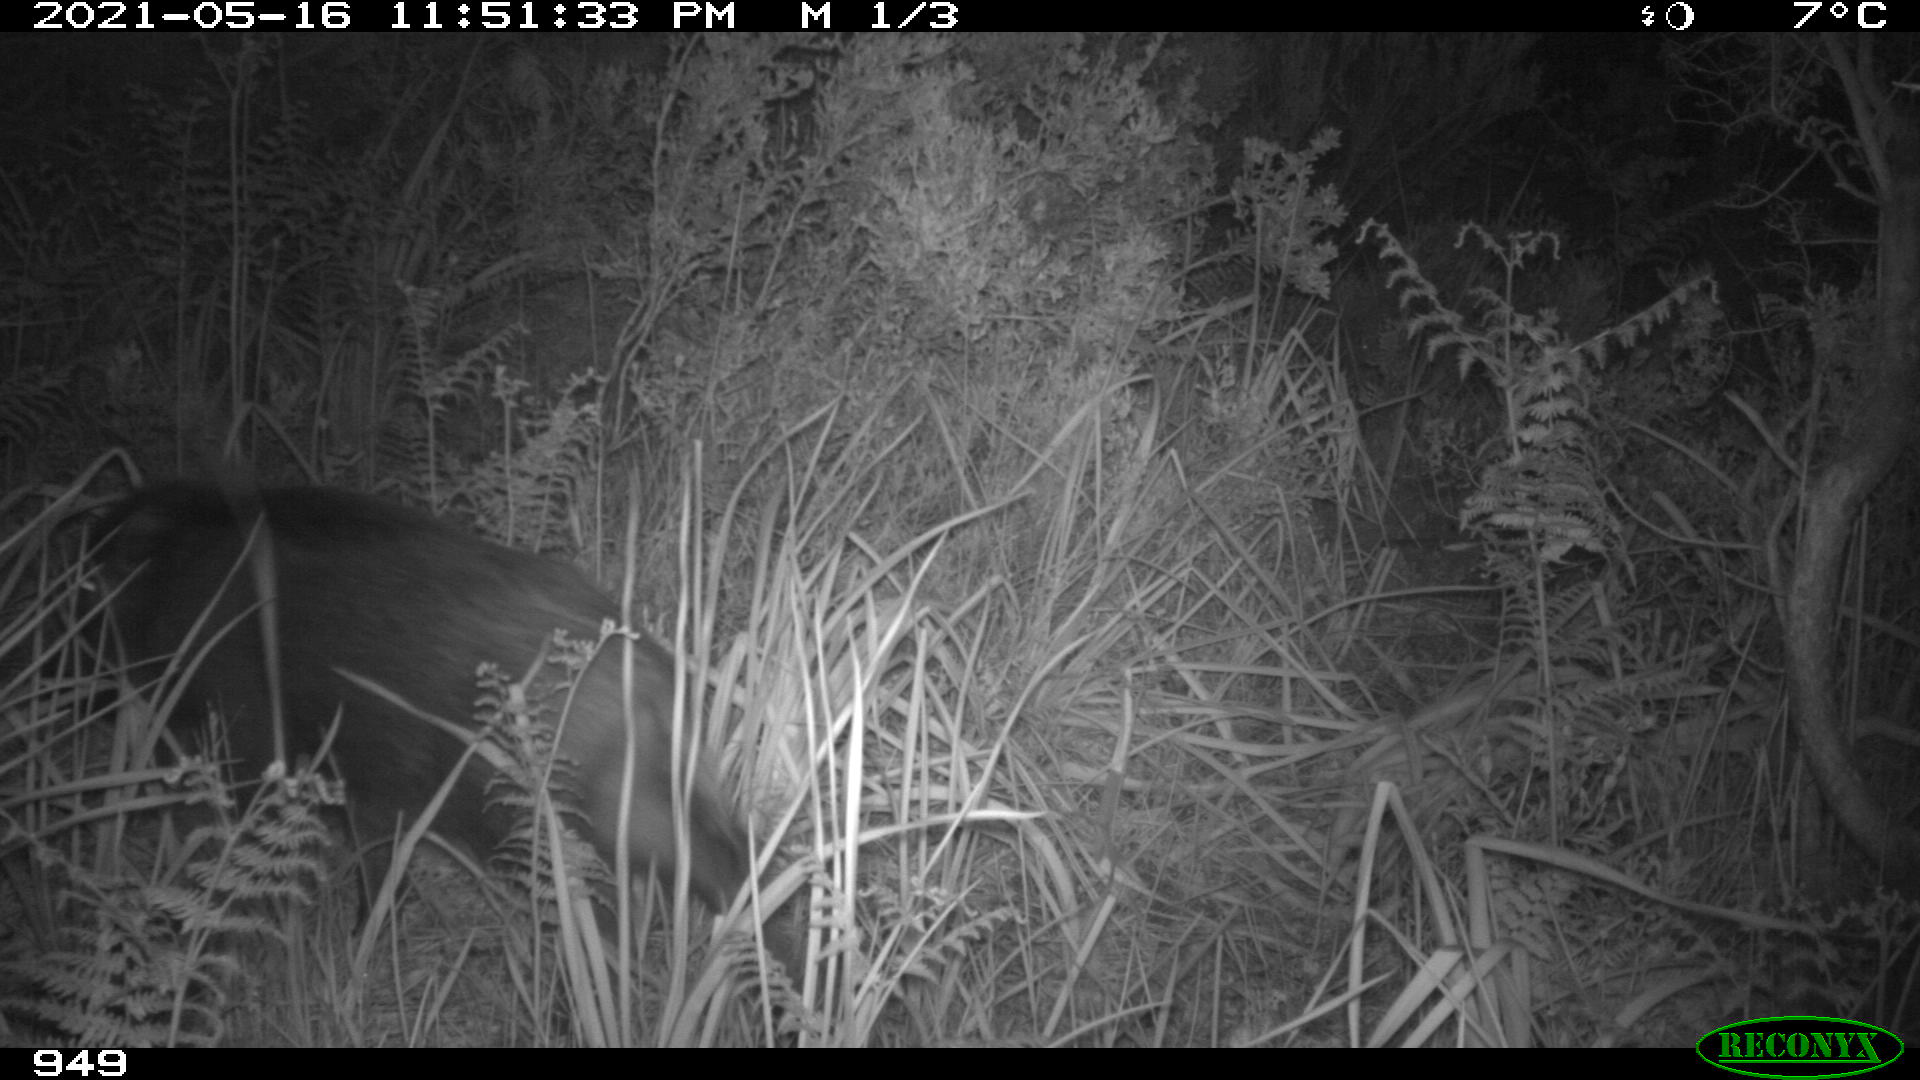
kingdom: Animalia
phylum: Chordata
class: Mammalia
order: Artiodactyla
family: Suidae
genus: Sus
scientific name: Sus scrofa
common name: Wild boar
